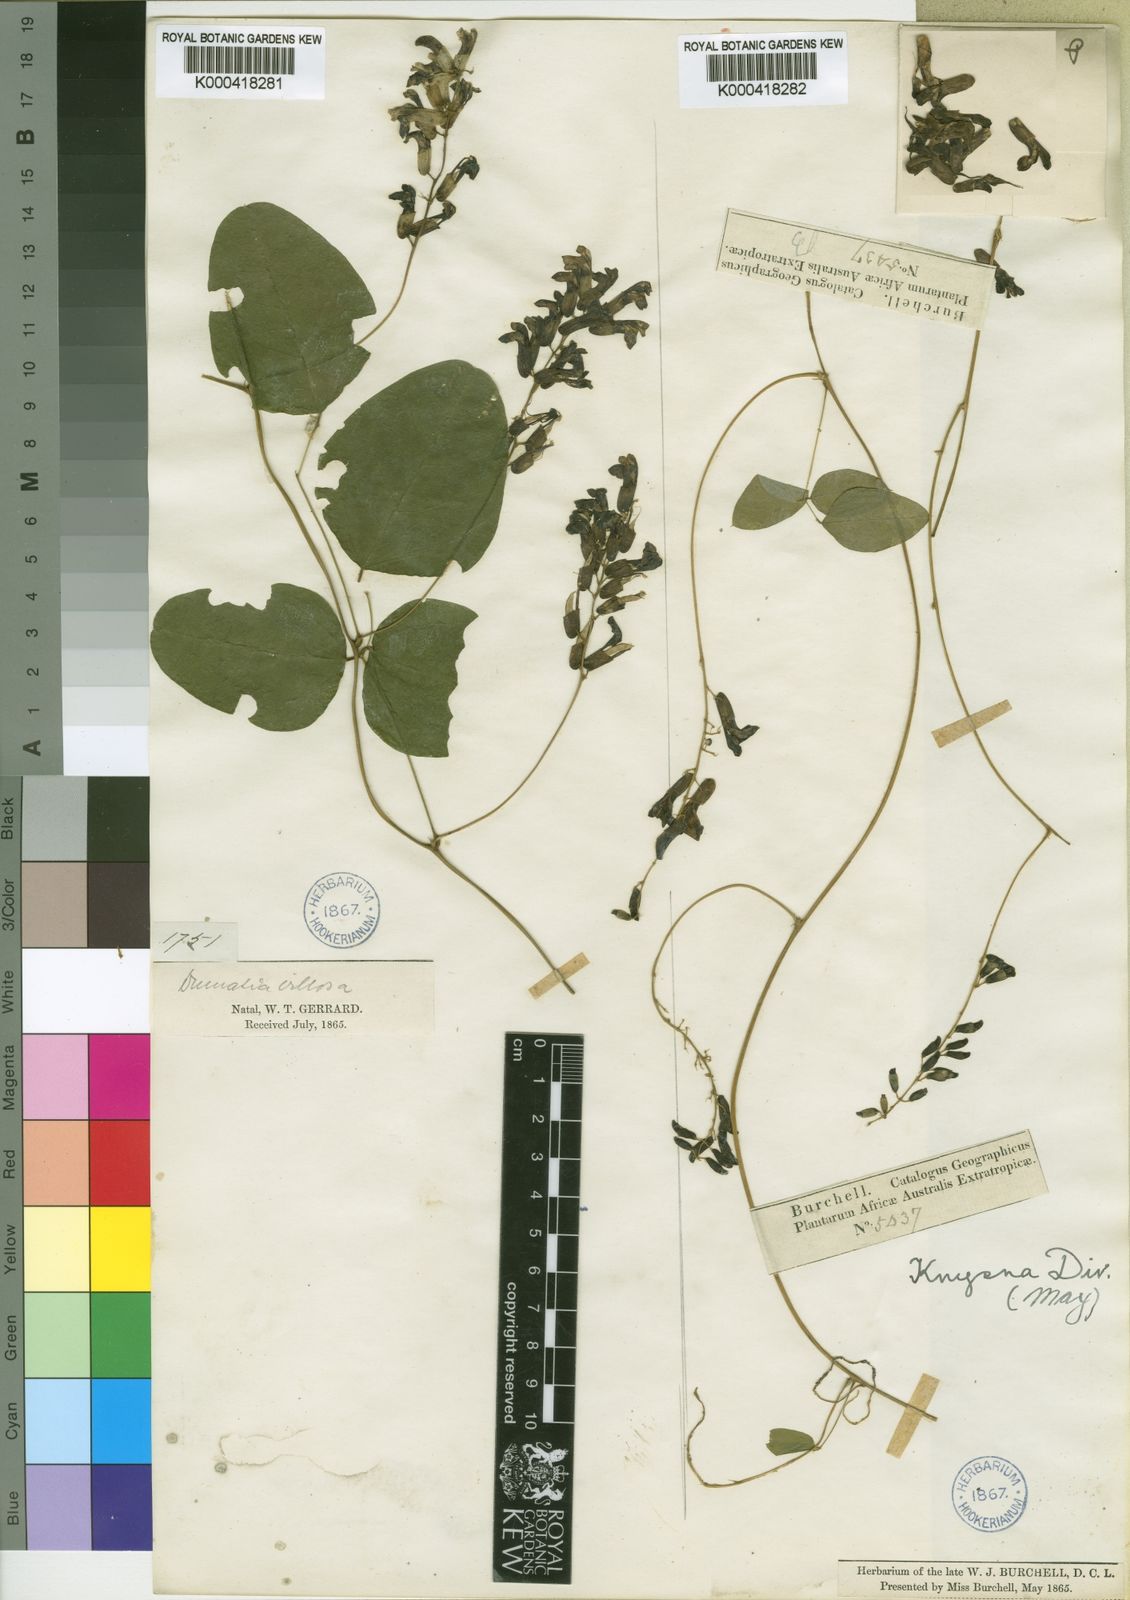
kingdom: Plantae
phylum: Tracheophyta
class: Magnoliopsida
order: Fabales
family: Fabaceae
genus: Dumasia
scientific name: Dumasia villosa
